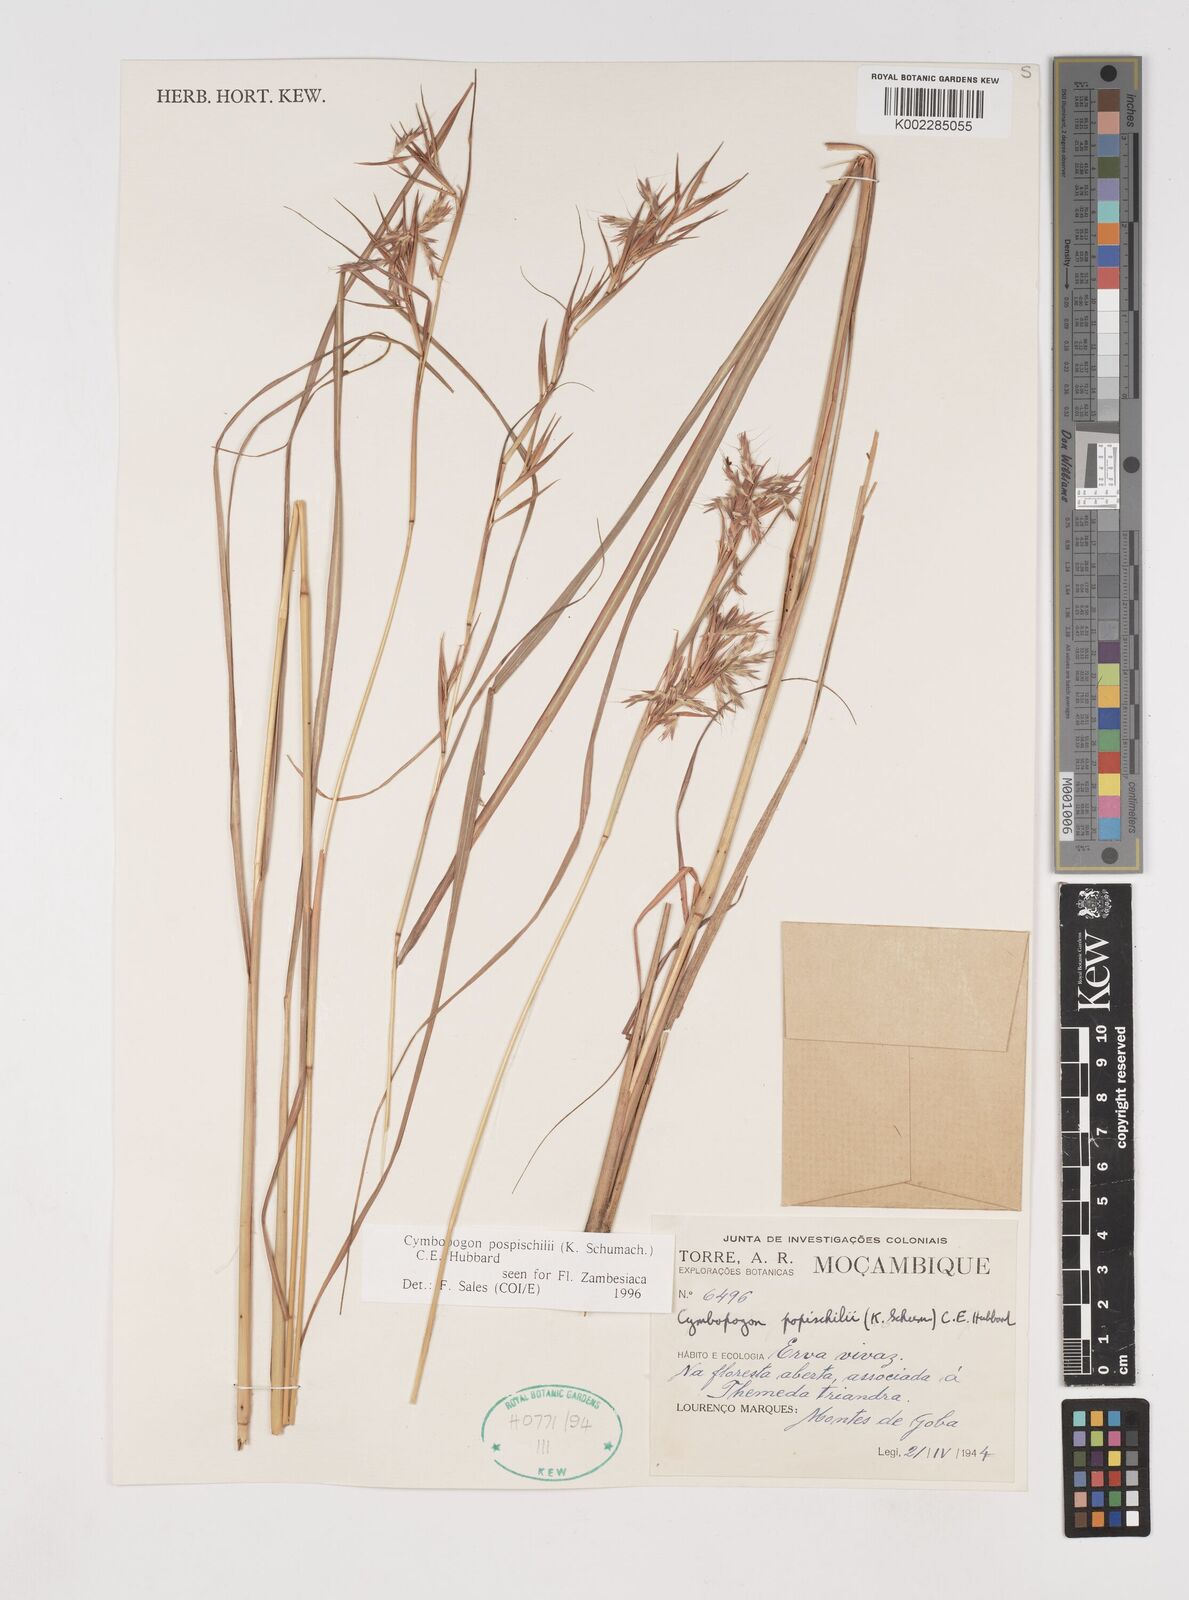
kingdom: Plantae
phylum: Tracheophyta
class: Liliopsida
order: Poales
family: Poaceae
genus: Cymbopogon
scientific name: Cymbopogon pospischilii
